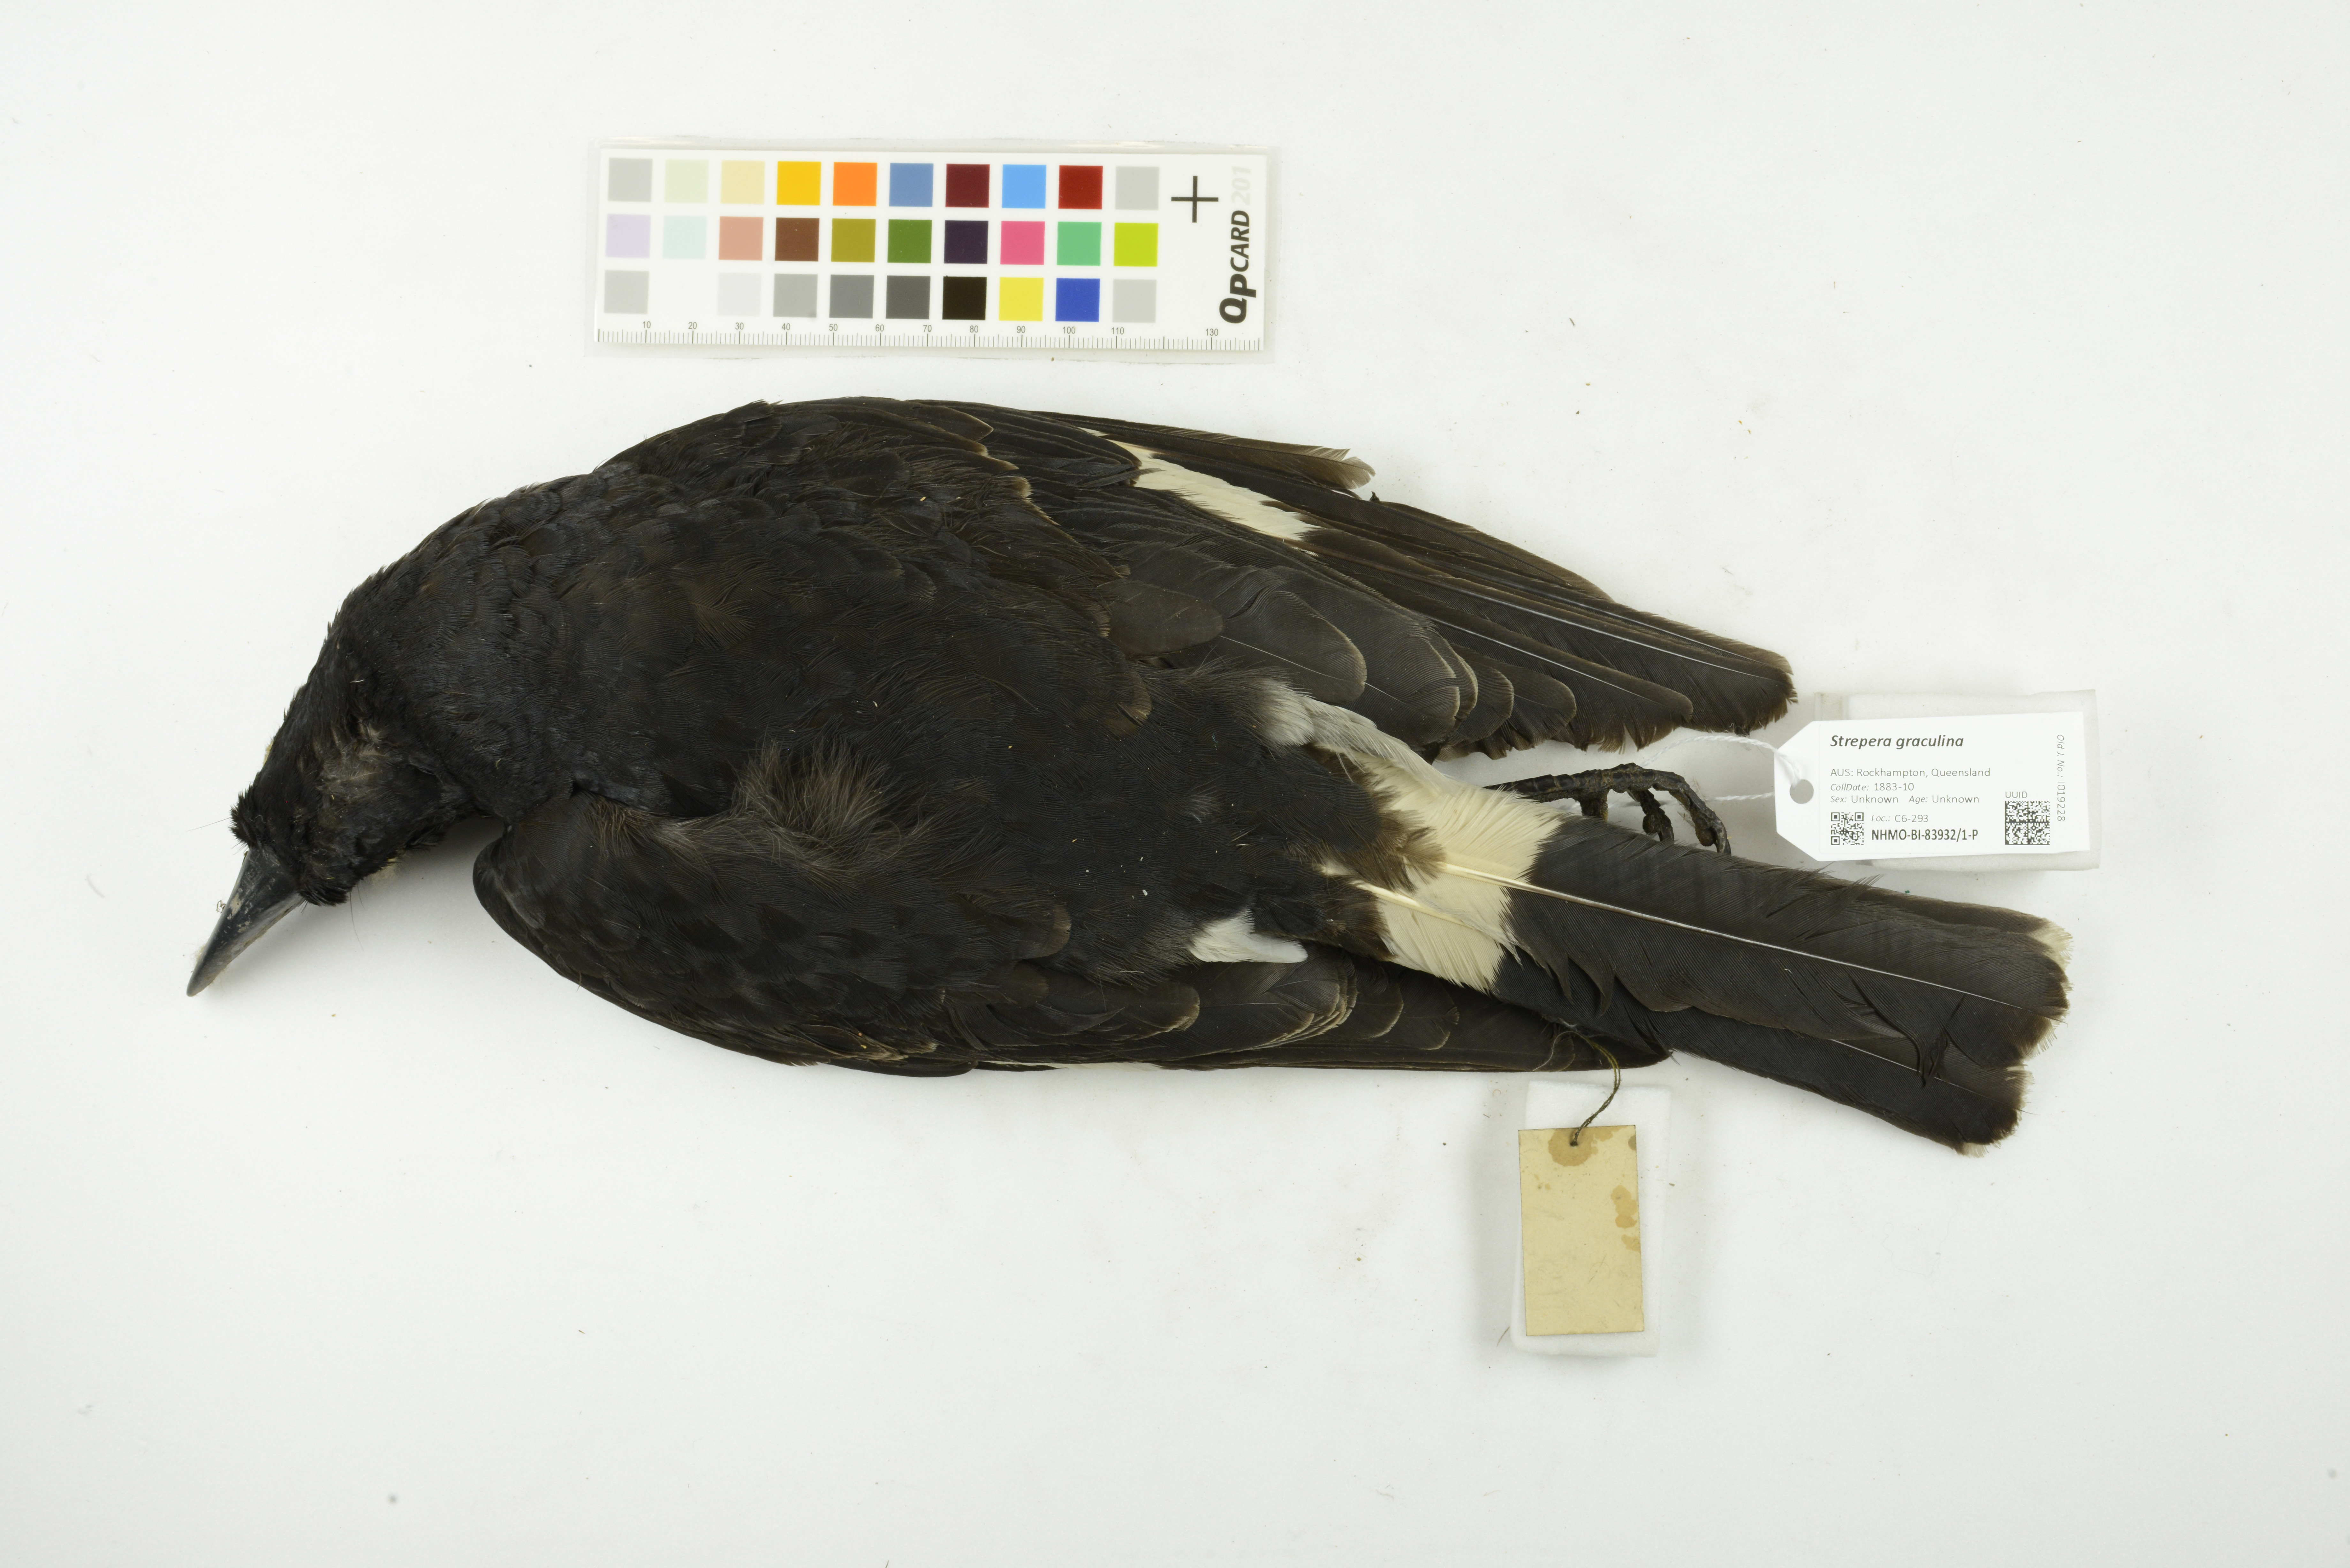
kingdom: Animalia
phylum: Chordata
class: Aves
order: Passeriformes
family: Cracticidae
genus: Strepera
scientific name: Strepera graculina
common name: Pied currawong
